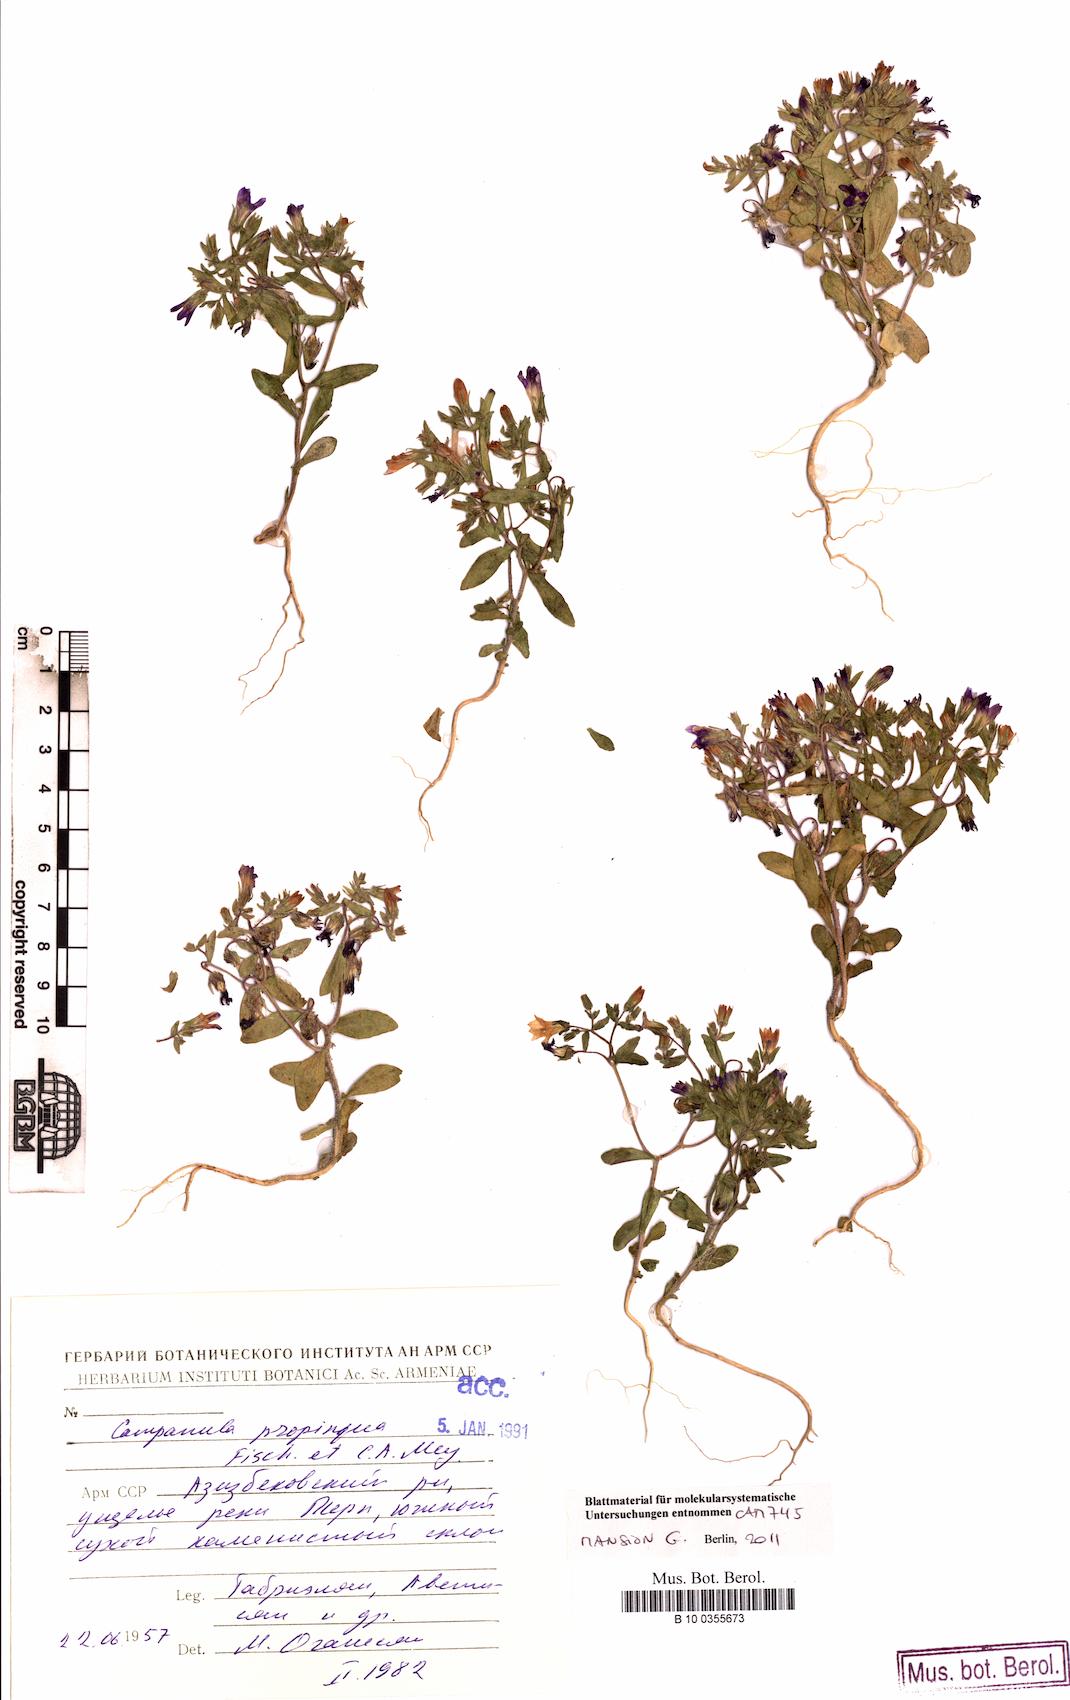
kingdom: Plantae
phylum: Tracheophyta
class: Magnoliopsida
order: Asterales
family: Campanulaceae
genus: Campanula
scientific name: Campanula propinqua
